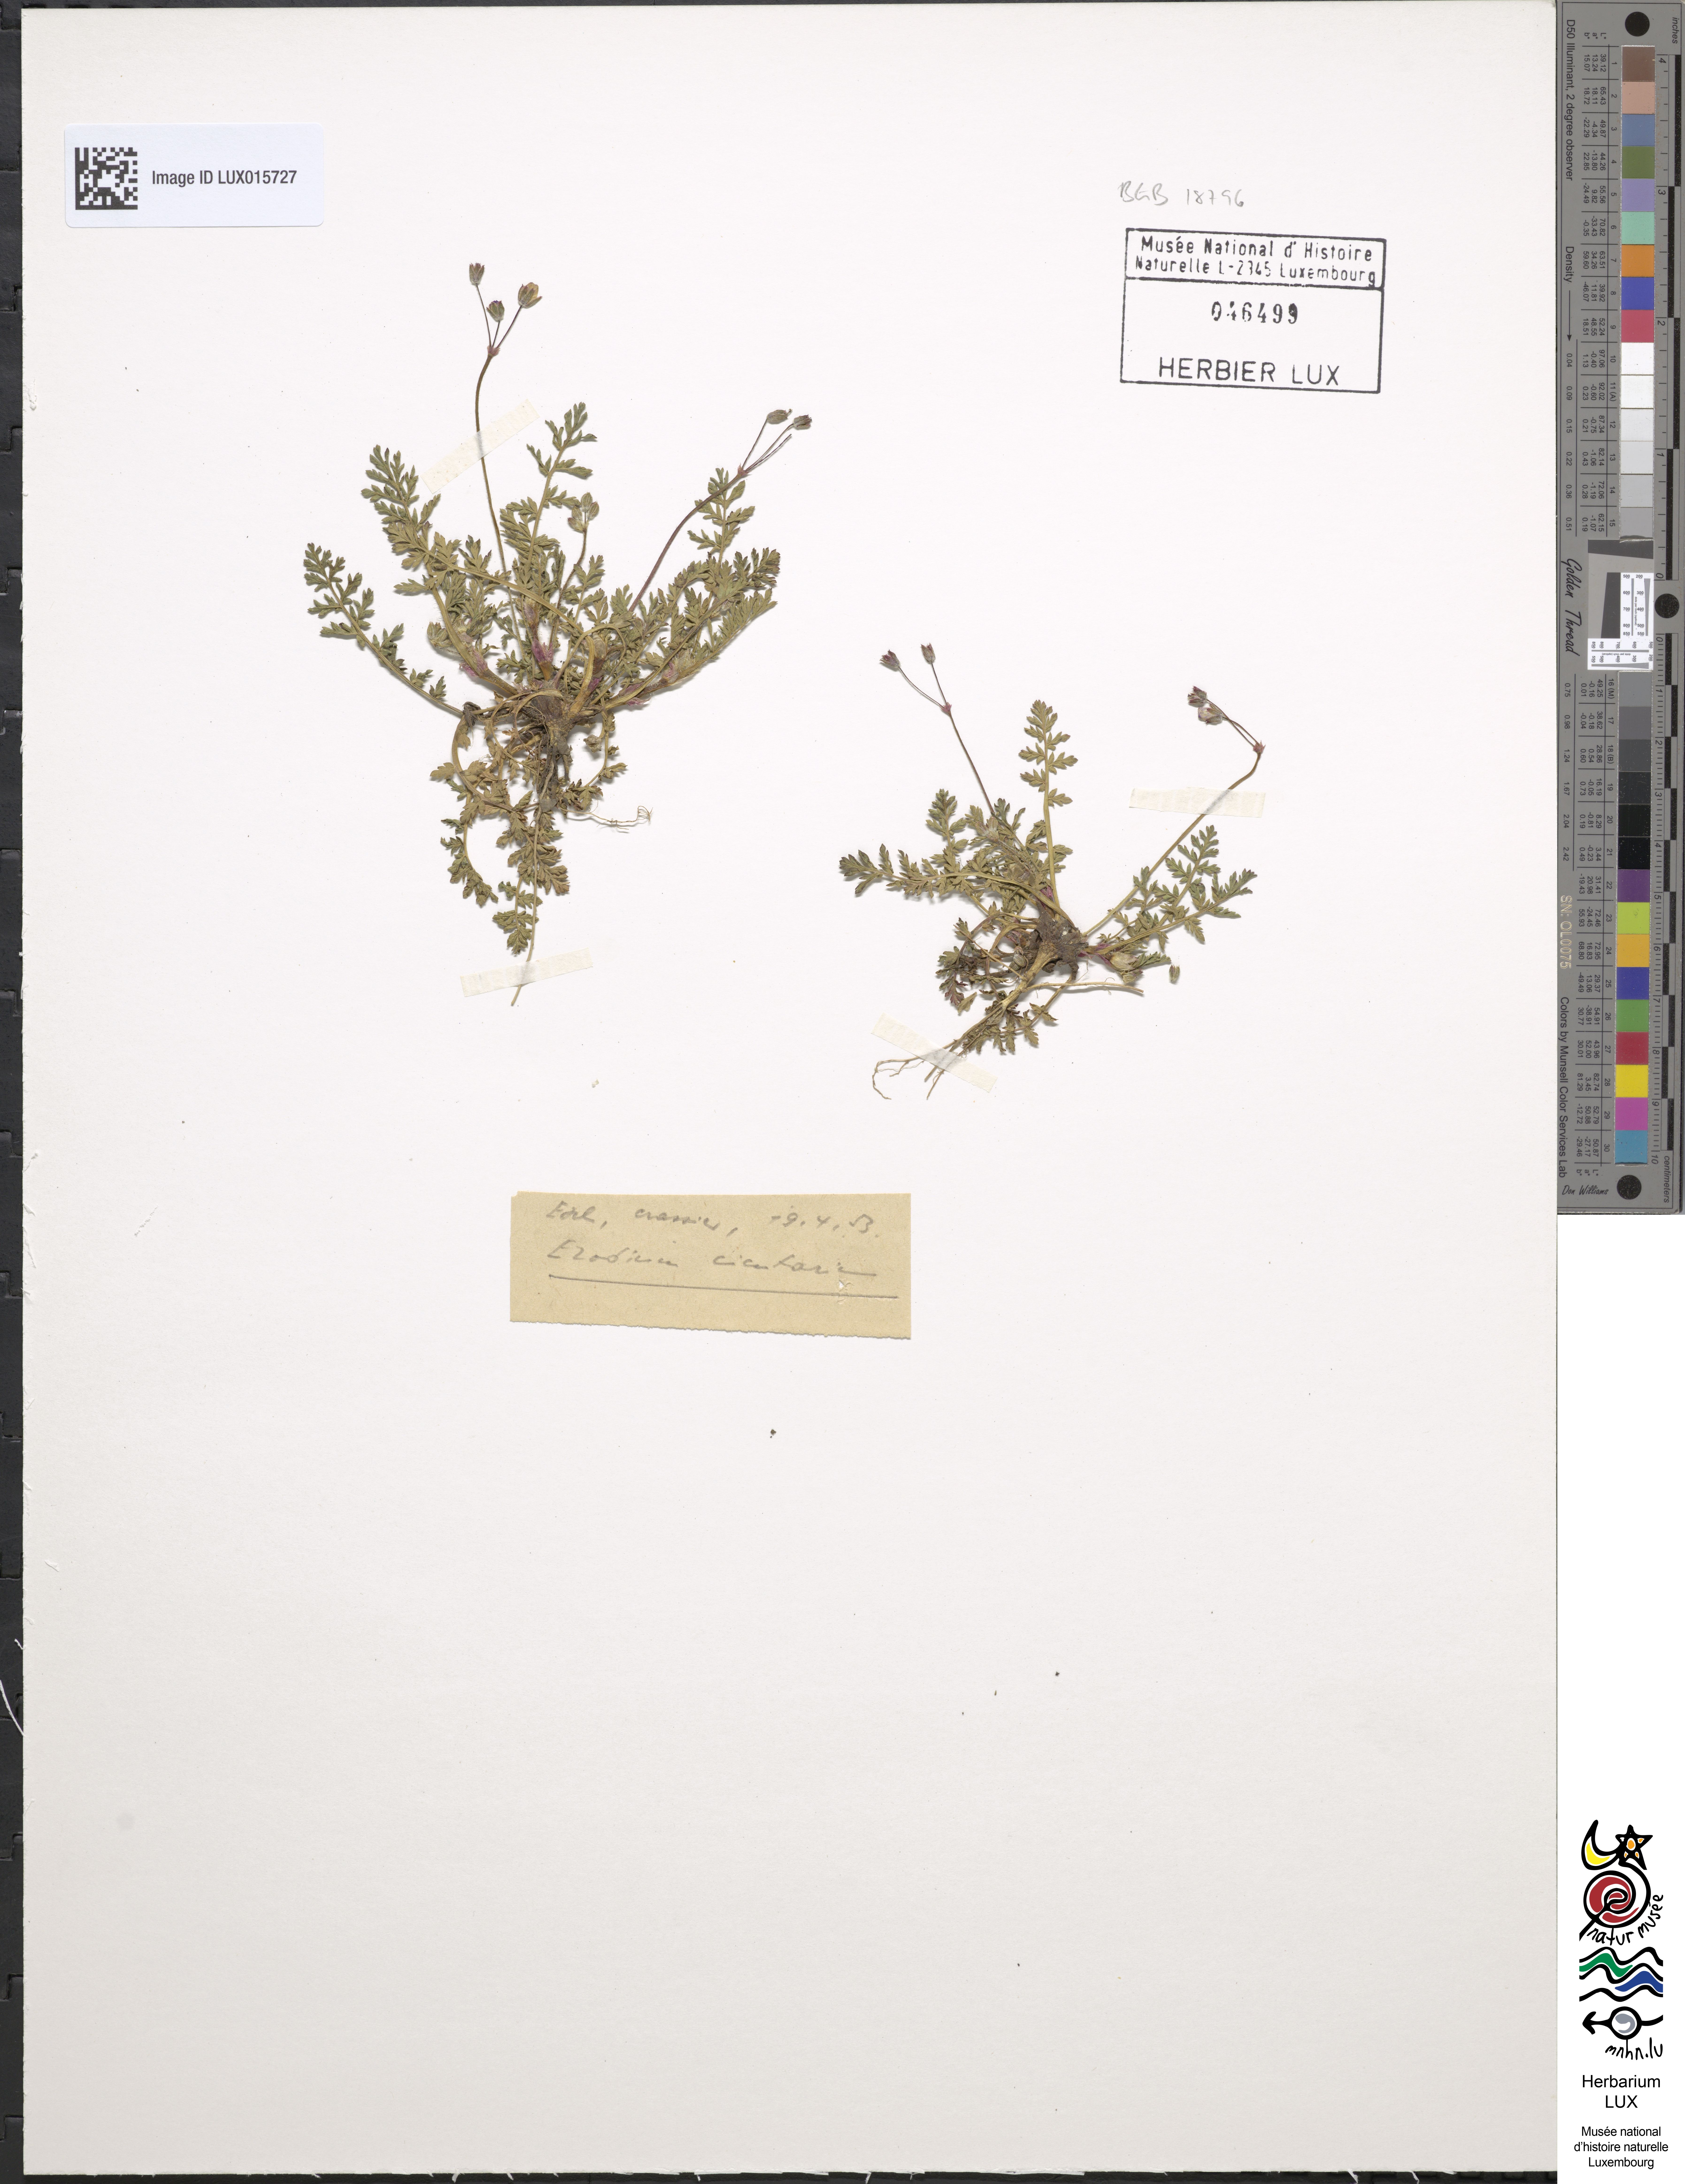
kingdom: Plantae
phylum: Tracheophyta
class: Magnoliopsida
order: Geraniales
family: Geraniaceae
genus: Erodium
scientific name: Erodium cicutarium
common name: Common stork's-bill
